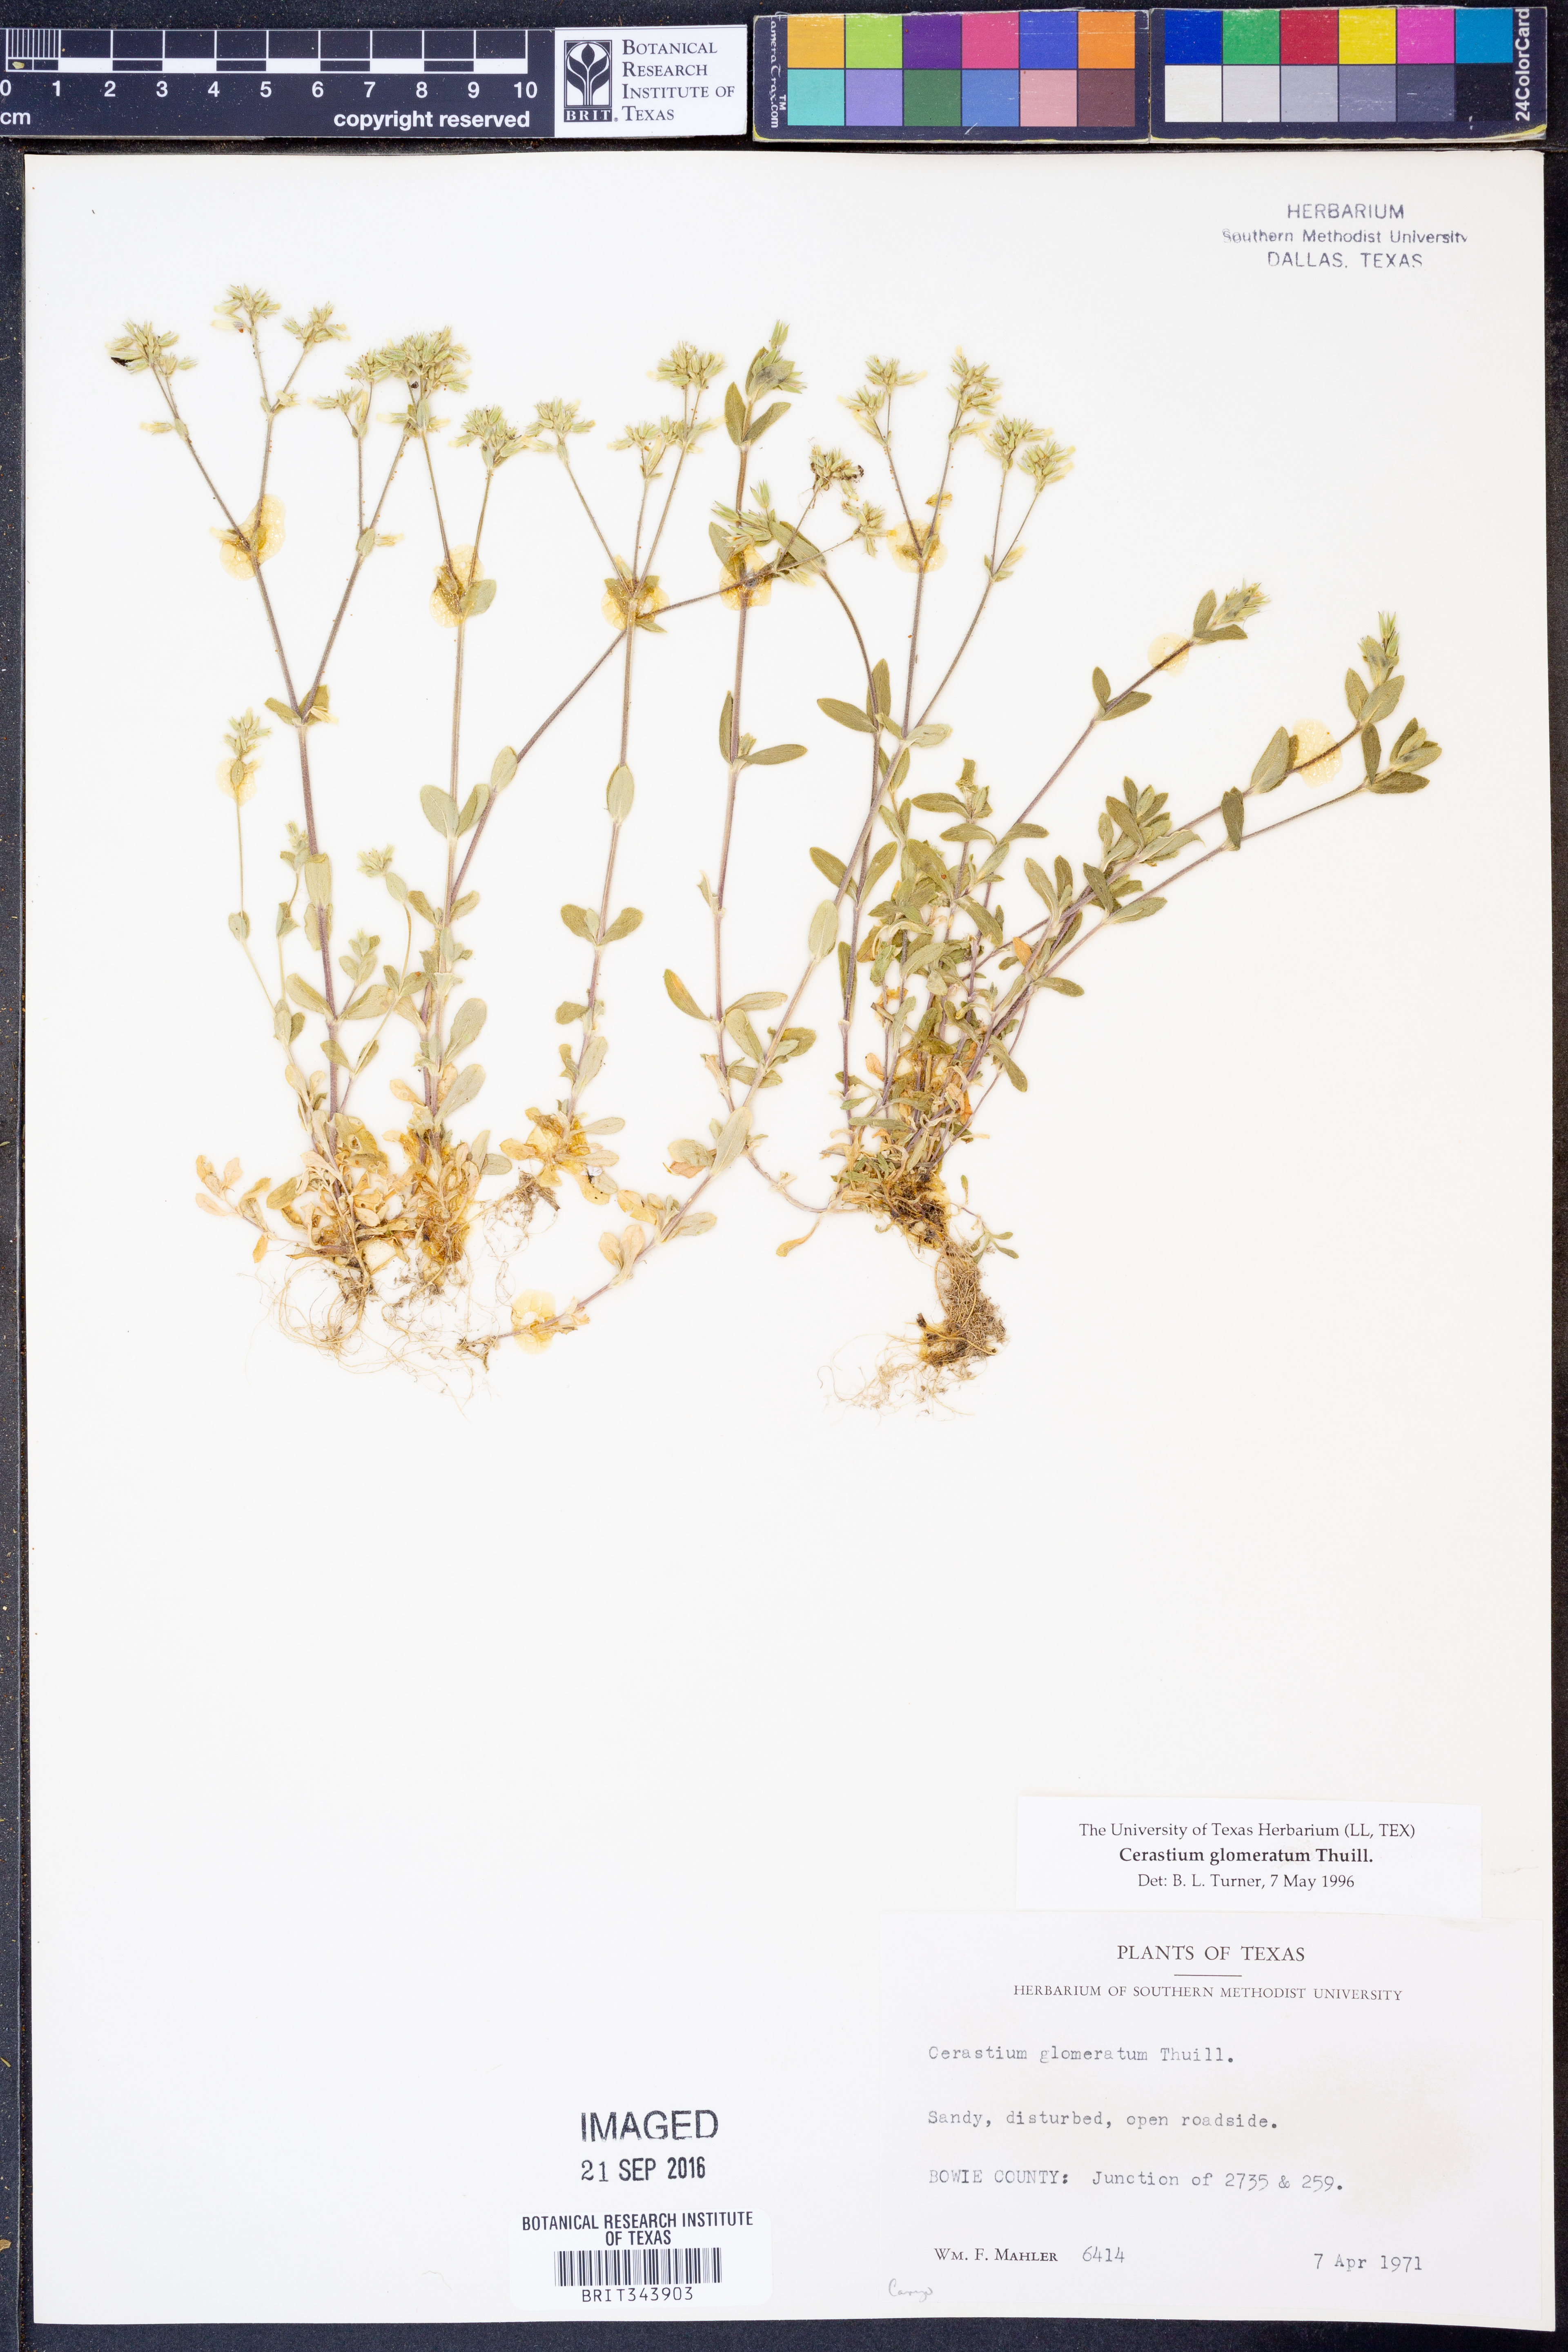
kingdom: Plantae
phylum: Tracheophyta
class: Magnoliopsida
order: Caryophyllales
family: Caryophyllaceae
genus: Cerastium
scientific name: Cerastium glomeratum
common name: Sticky chickweed
